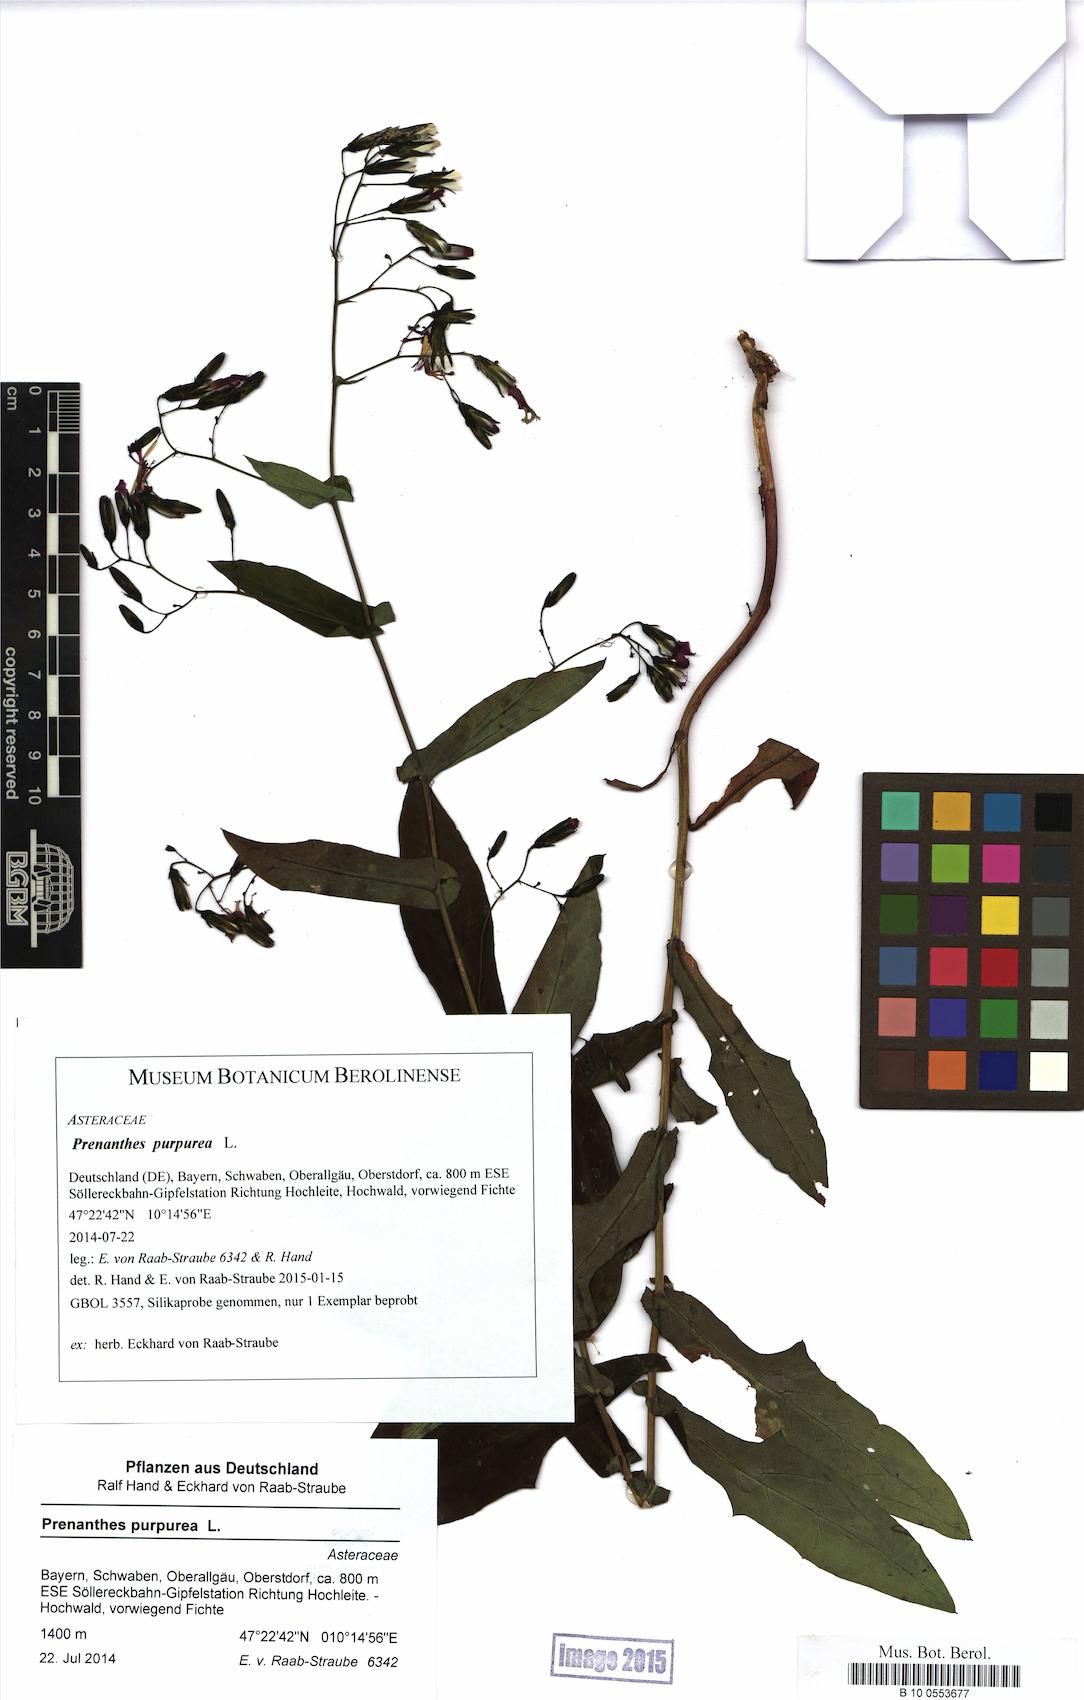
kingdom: Plantae
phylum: Tracheophyta
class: Magnoliopsida
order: Asterales
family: Asteraceae
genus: Prenanthes
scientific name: Prenanthes purpurea
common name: Purple lettuce
